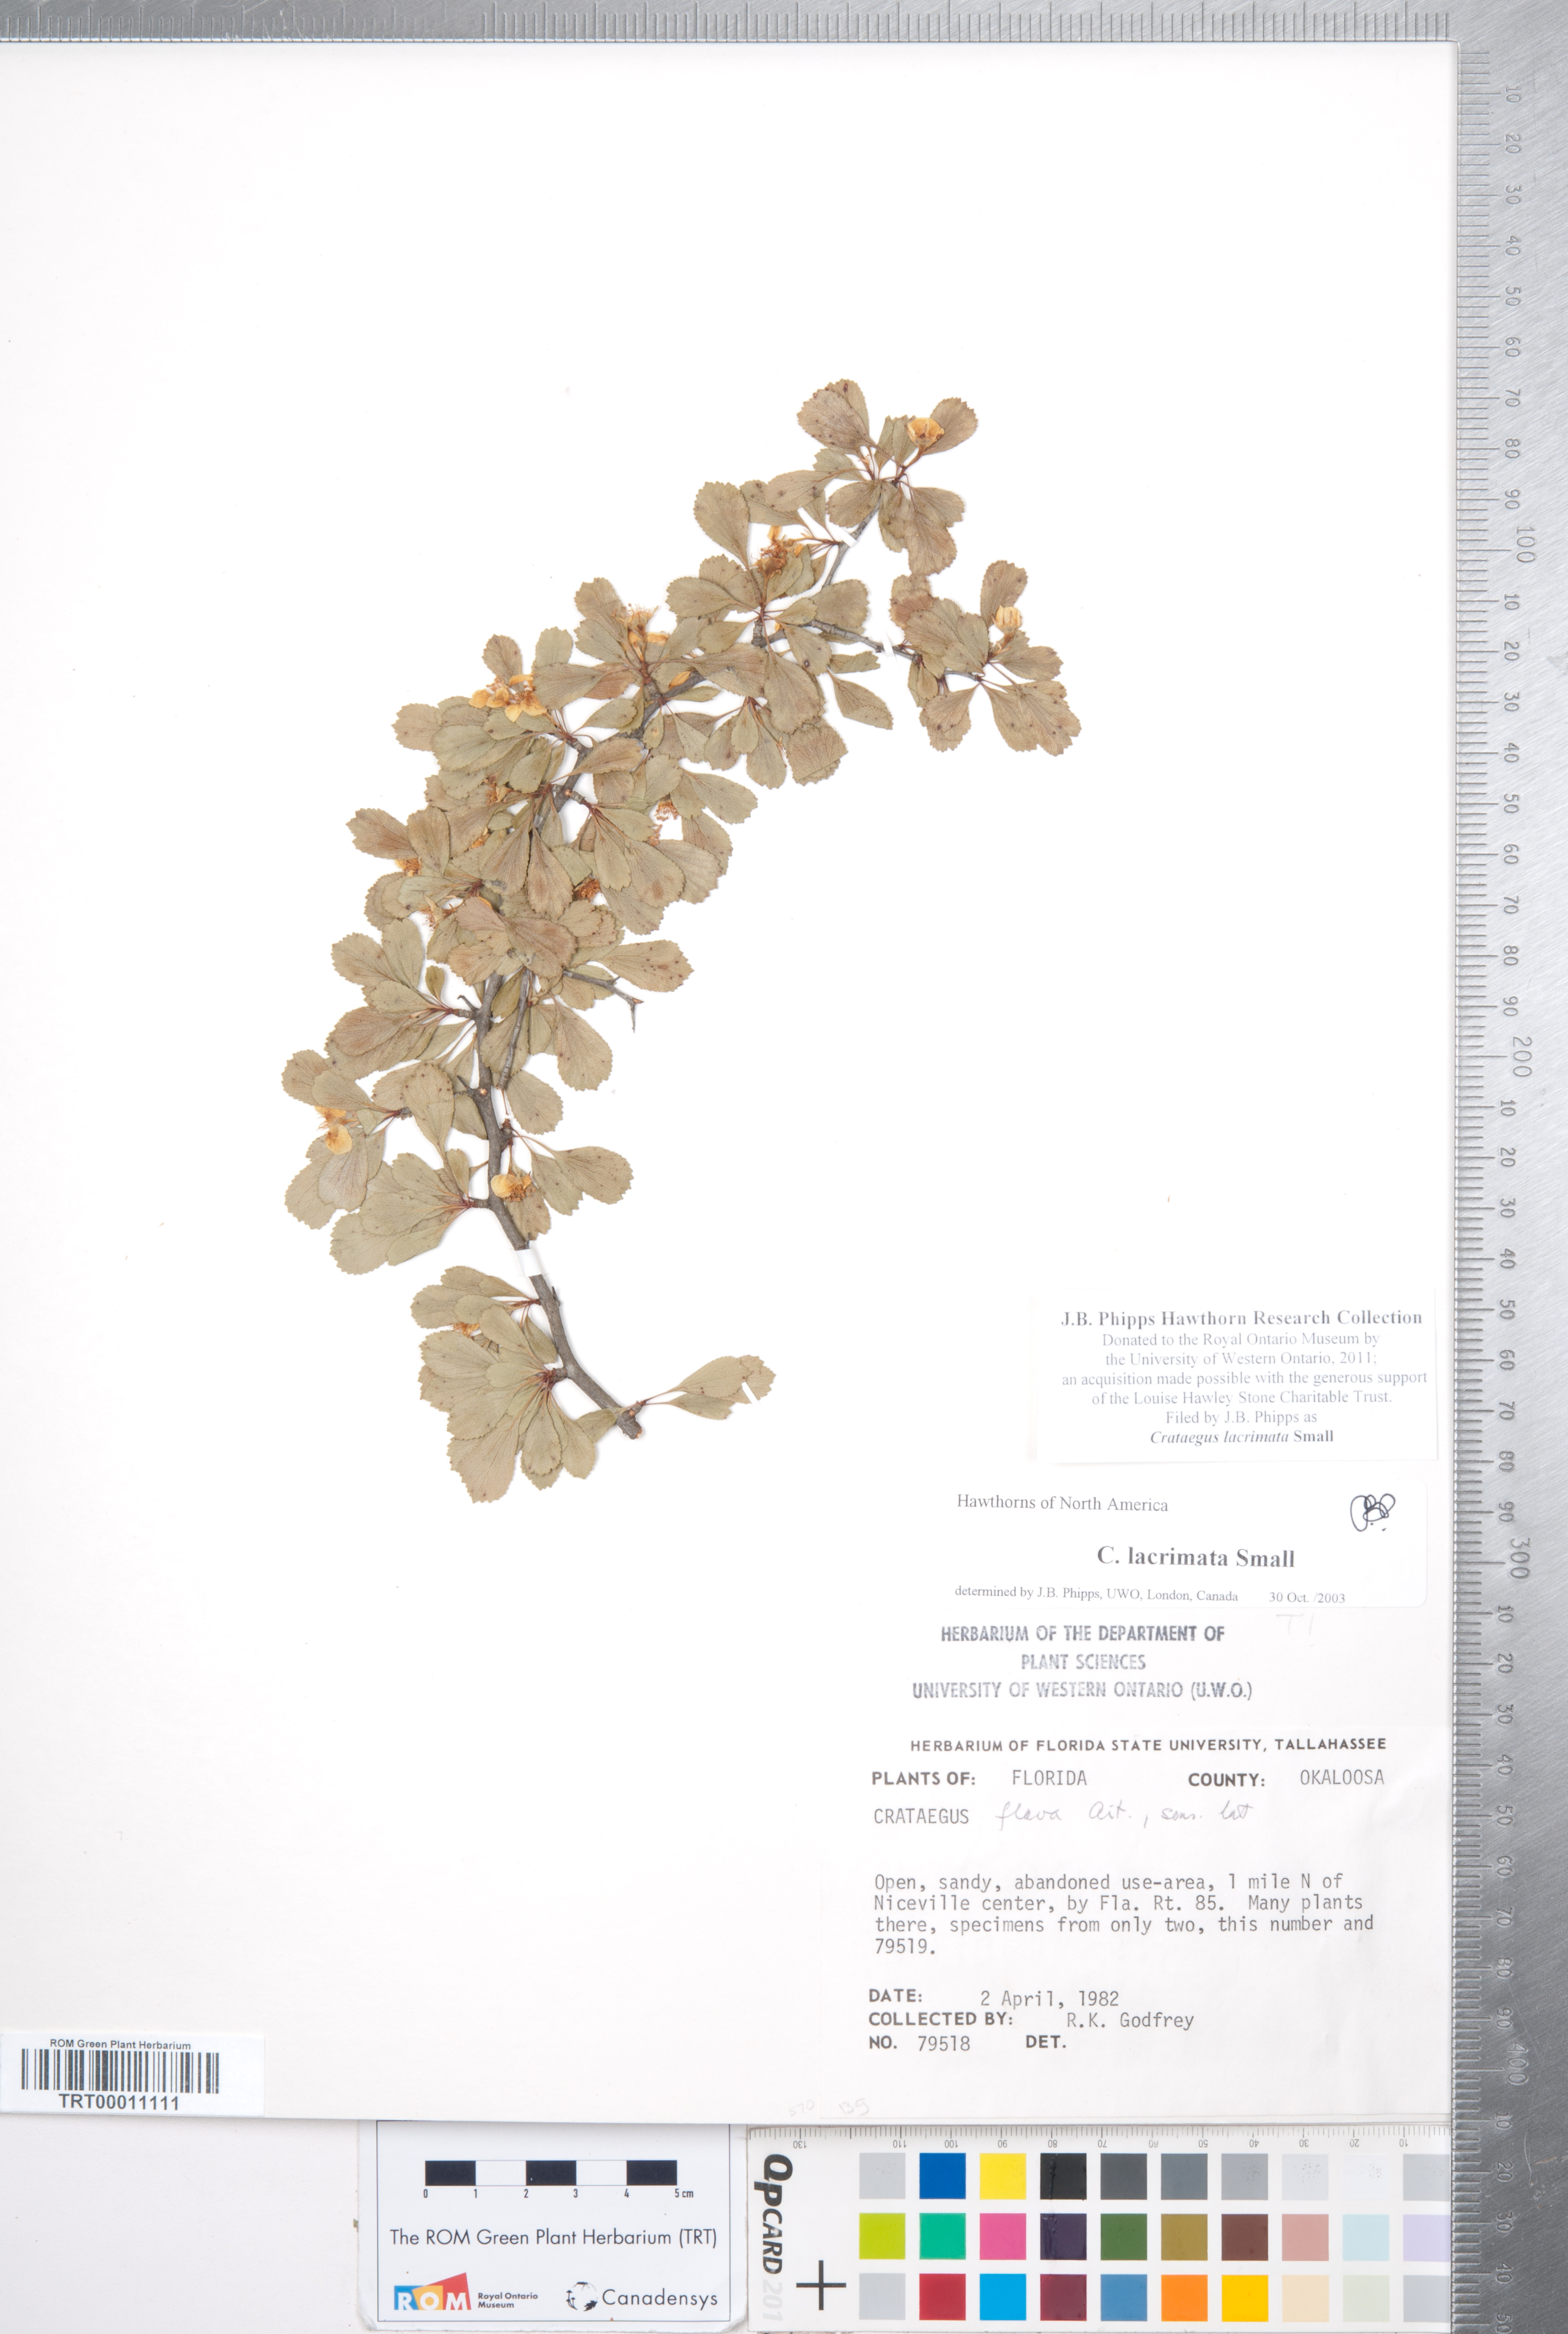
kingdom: Plantae
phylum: Tracheophyta
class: Magnoliopsida
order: Rosales
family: Rosaceae
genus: Crataegus
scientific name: Crataegus lacrimata
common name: Weeping hawthorn
